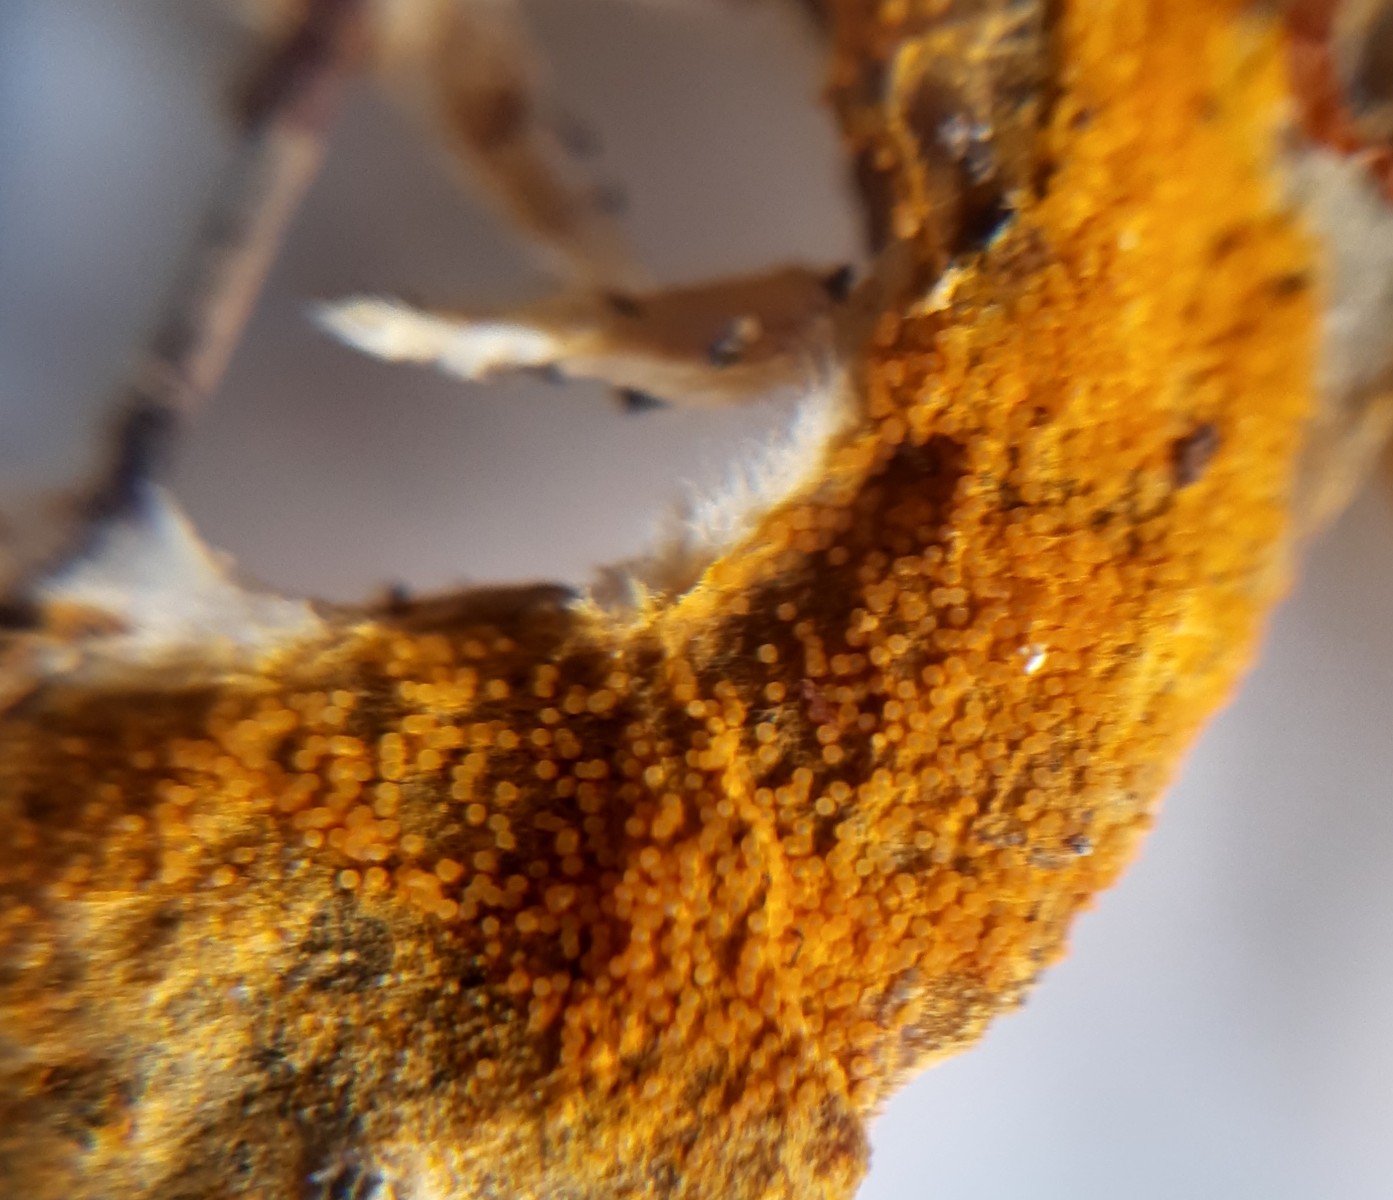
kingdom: Fungi
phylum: Ascomycota
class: Sordariomycetes
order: Hypocreales
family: Hypocreaceae
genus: Hypomyces
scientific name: Hypomyces aurantius
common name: almindelig snylteskorpe
